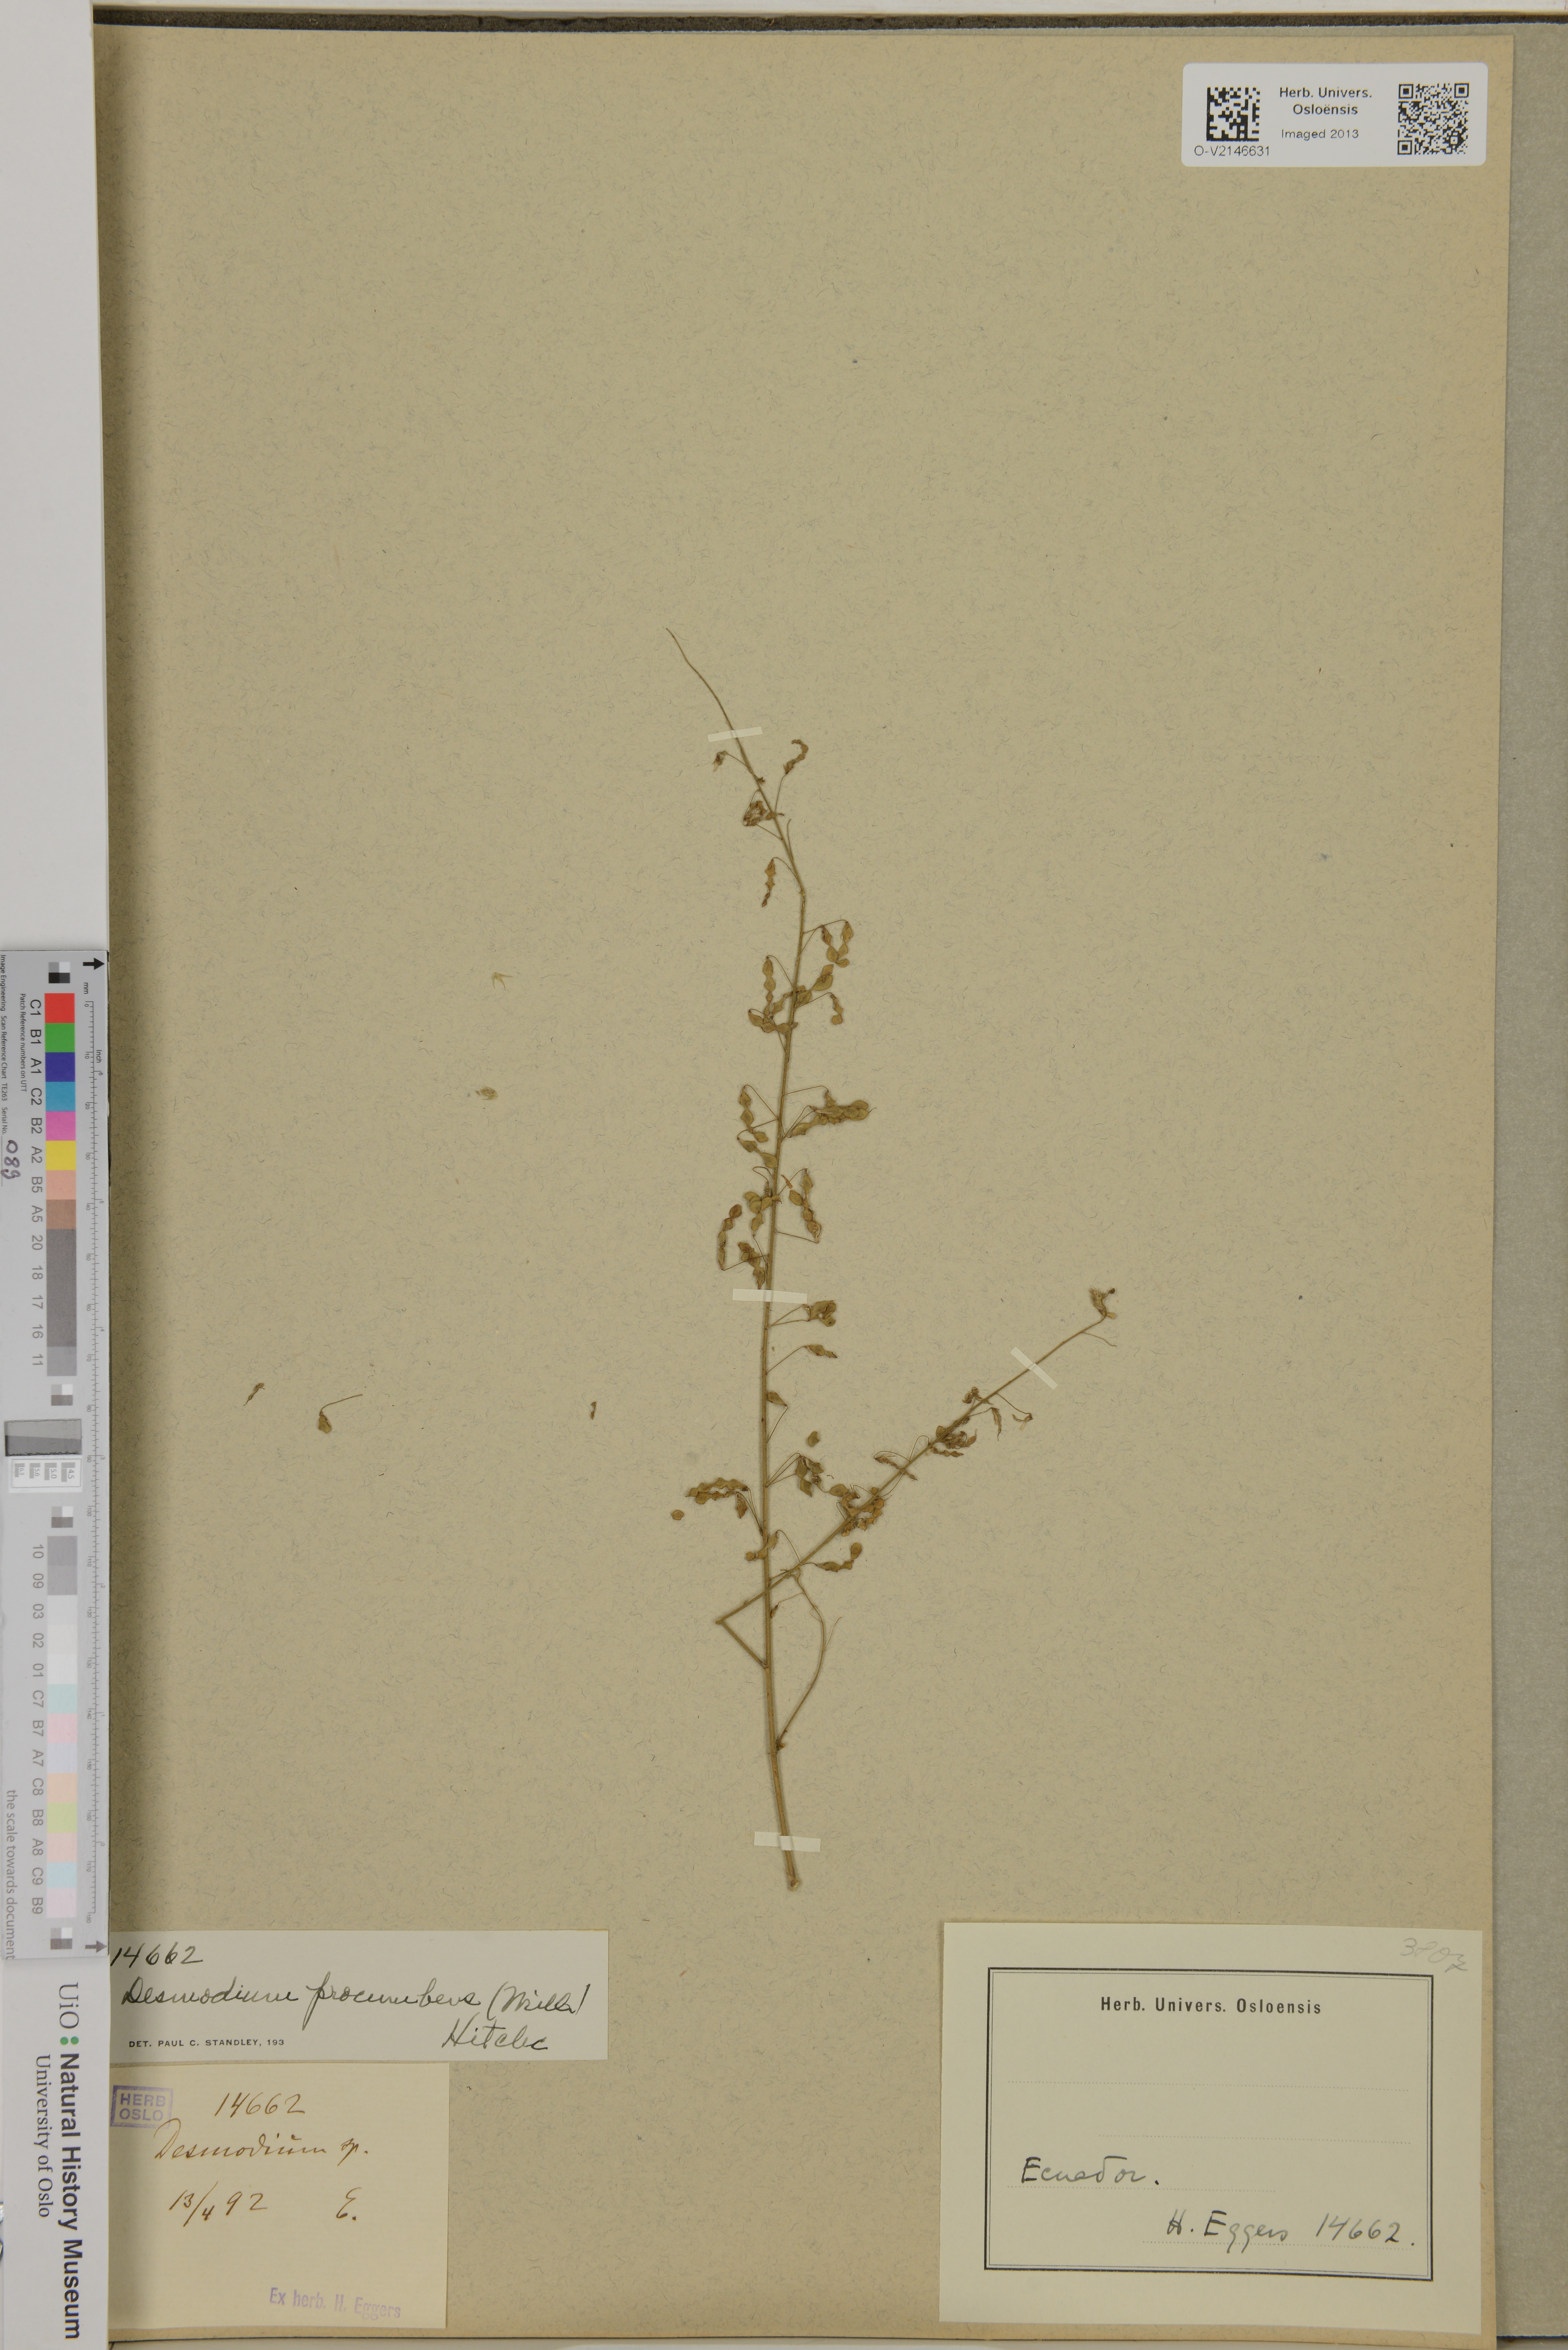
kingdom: Plantae
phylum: Tracheophyta
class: Magnoliopsida
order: Fabales
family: Fabaceae
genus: Desmodium
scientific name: Desmodium procumbens
